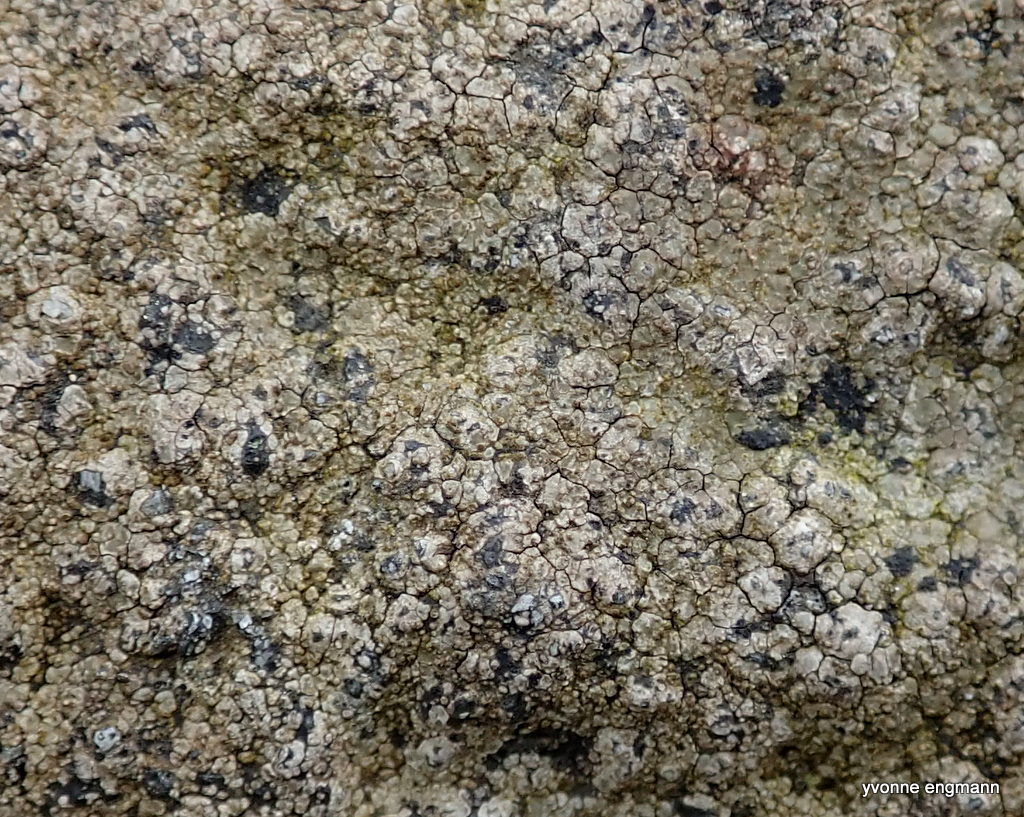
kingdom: Fungi
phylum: Ascomycota
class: Lecanoromycetes
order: Lecideales
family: Lecideaceae
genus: Lecidea
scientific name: Lecidea fuscoatra
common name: rudret skivelav
